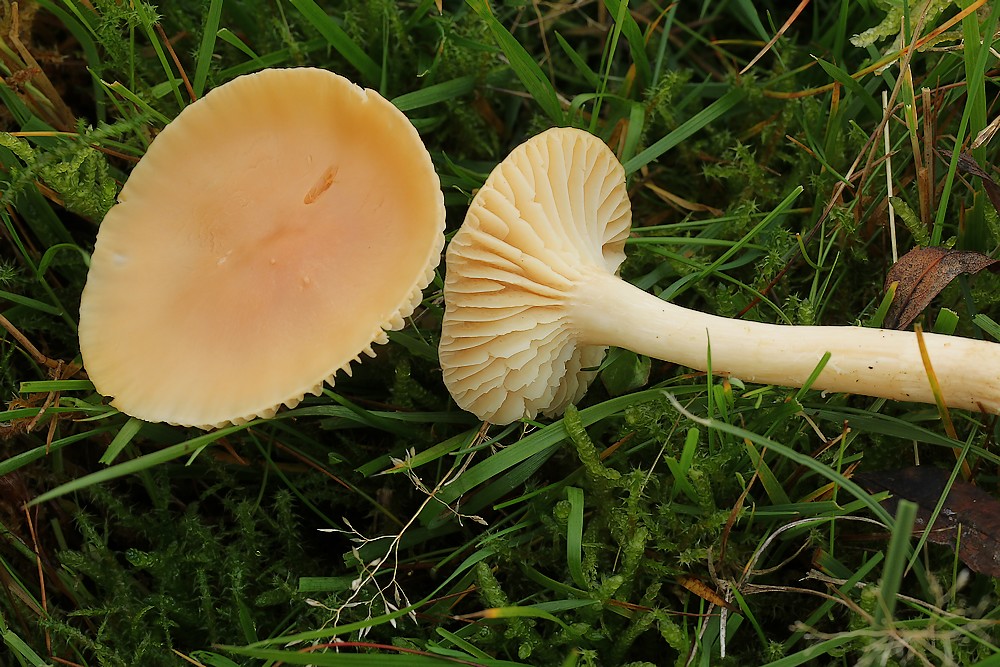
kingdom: Fungi
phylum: Basidiomycota
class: Agaricomycetes
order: Agaricales
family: Hygrophoraceae
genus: Cuphophyllus
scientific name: Cuphophyllus pratensis
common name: eng-vokshat
